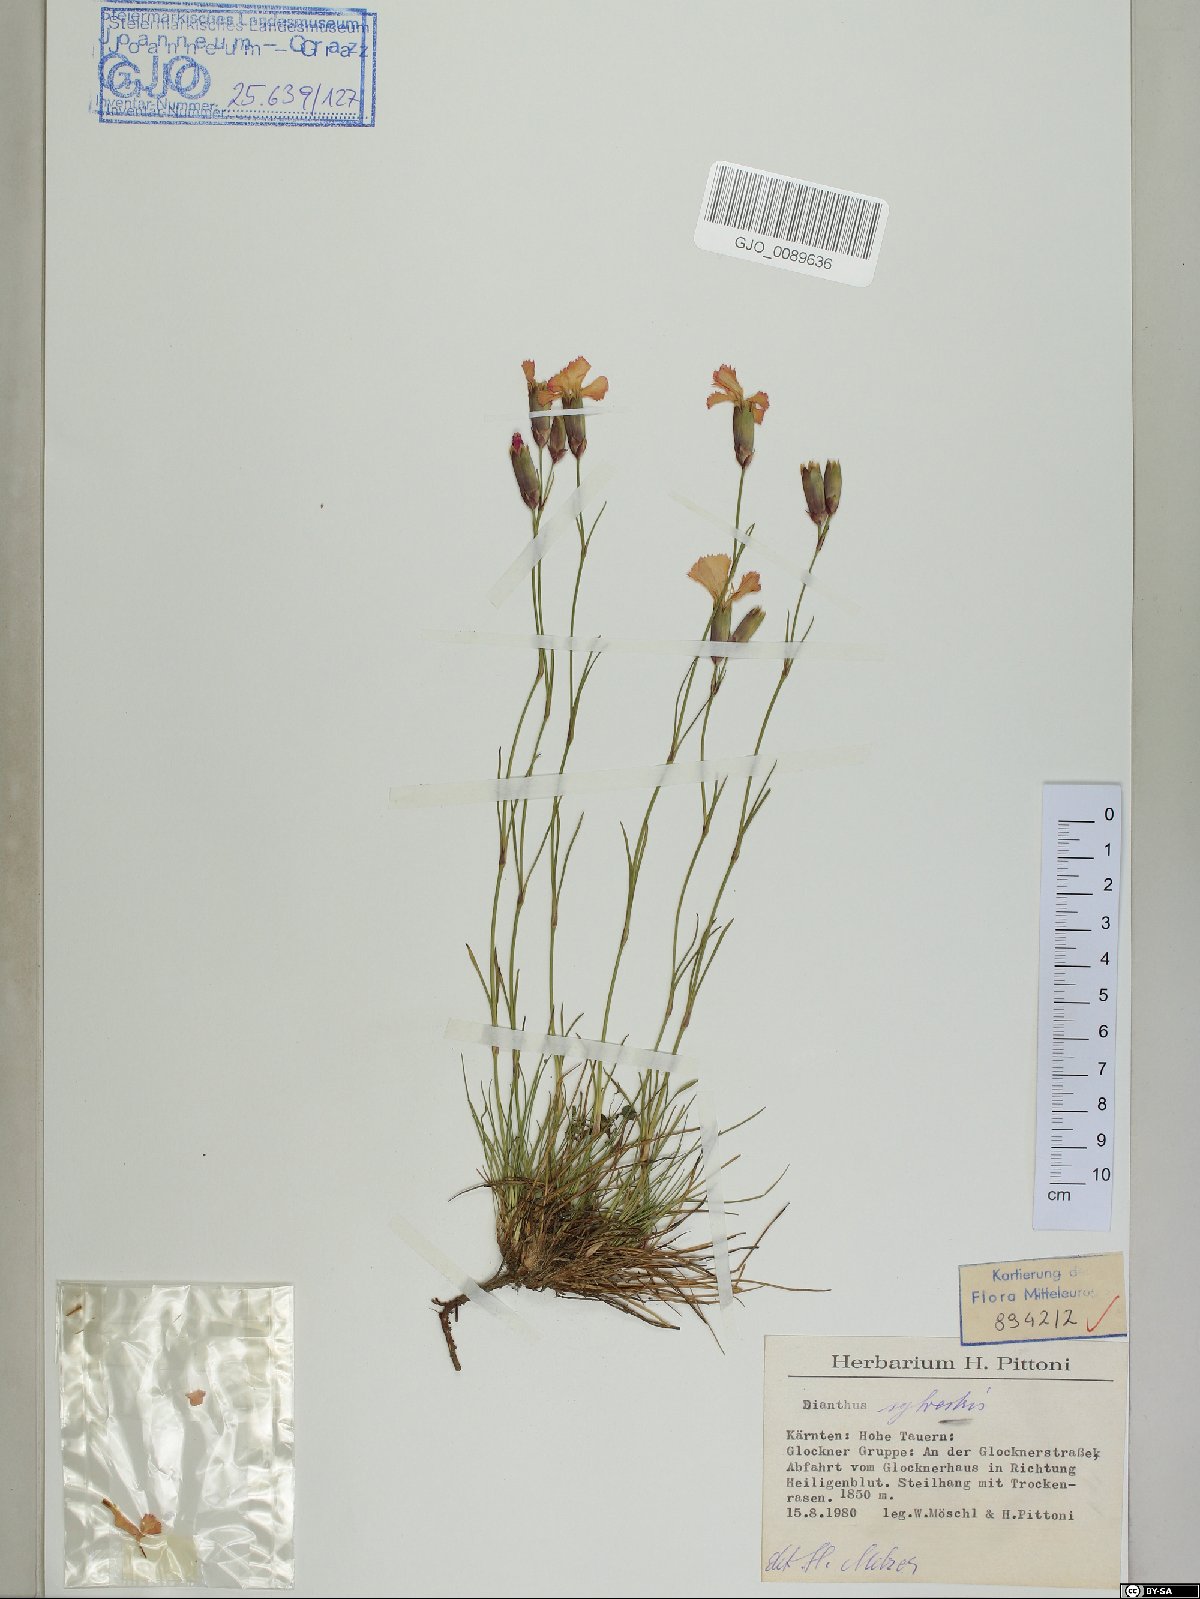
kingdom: Plantae
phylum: Tracheophyta
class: Magnoliopsida
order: Caryophyllales
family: Caryophyllaceae
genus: Dianthus
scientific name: Dianthus sylvestris
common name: Wood pink
